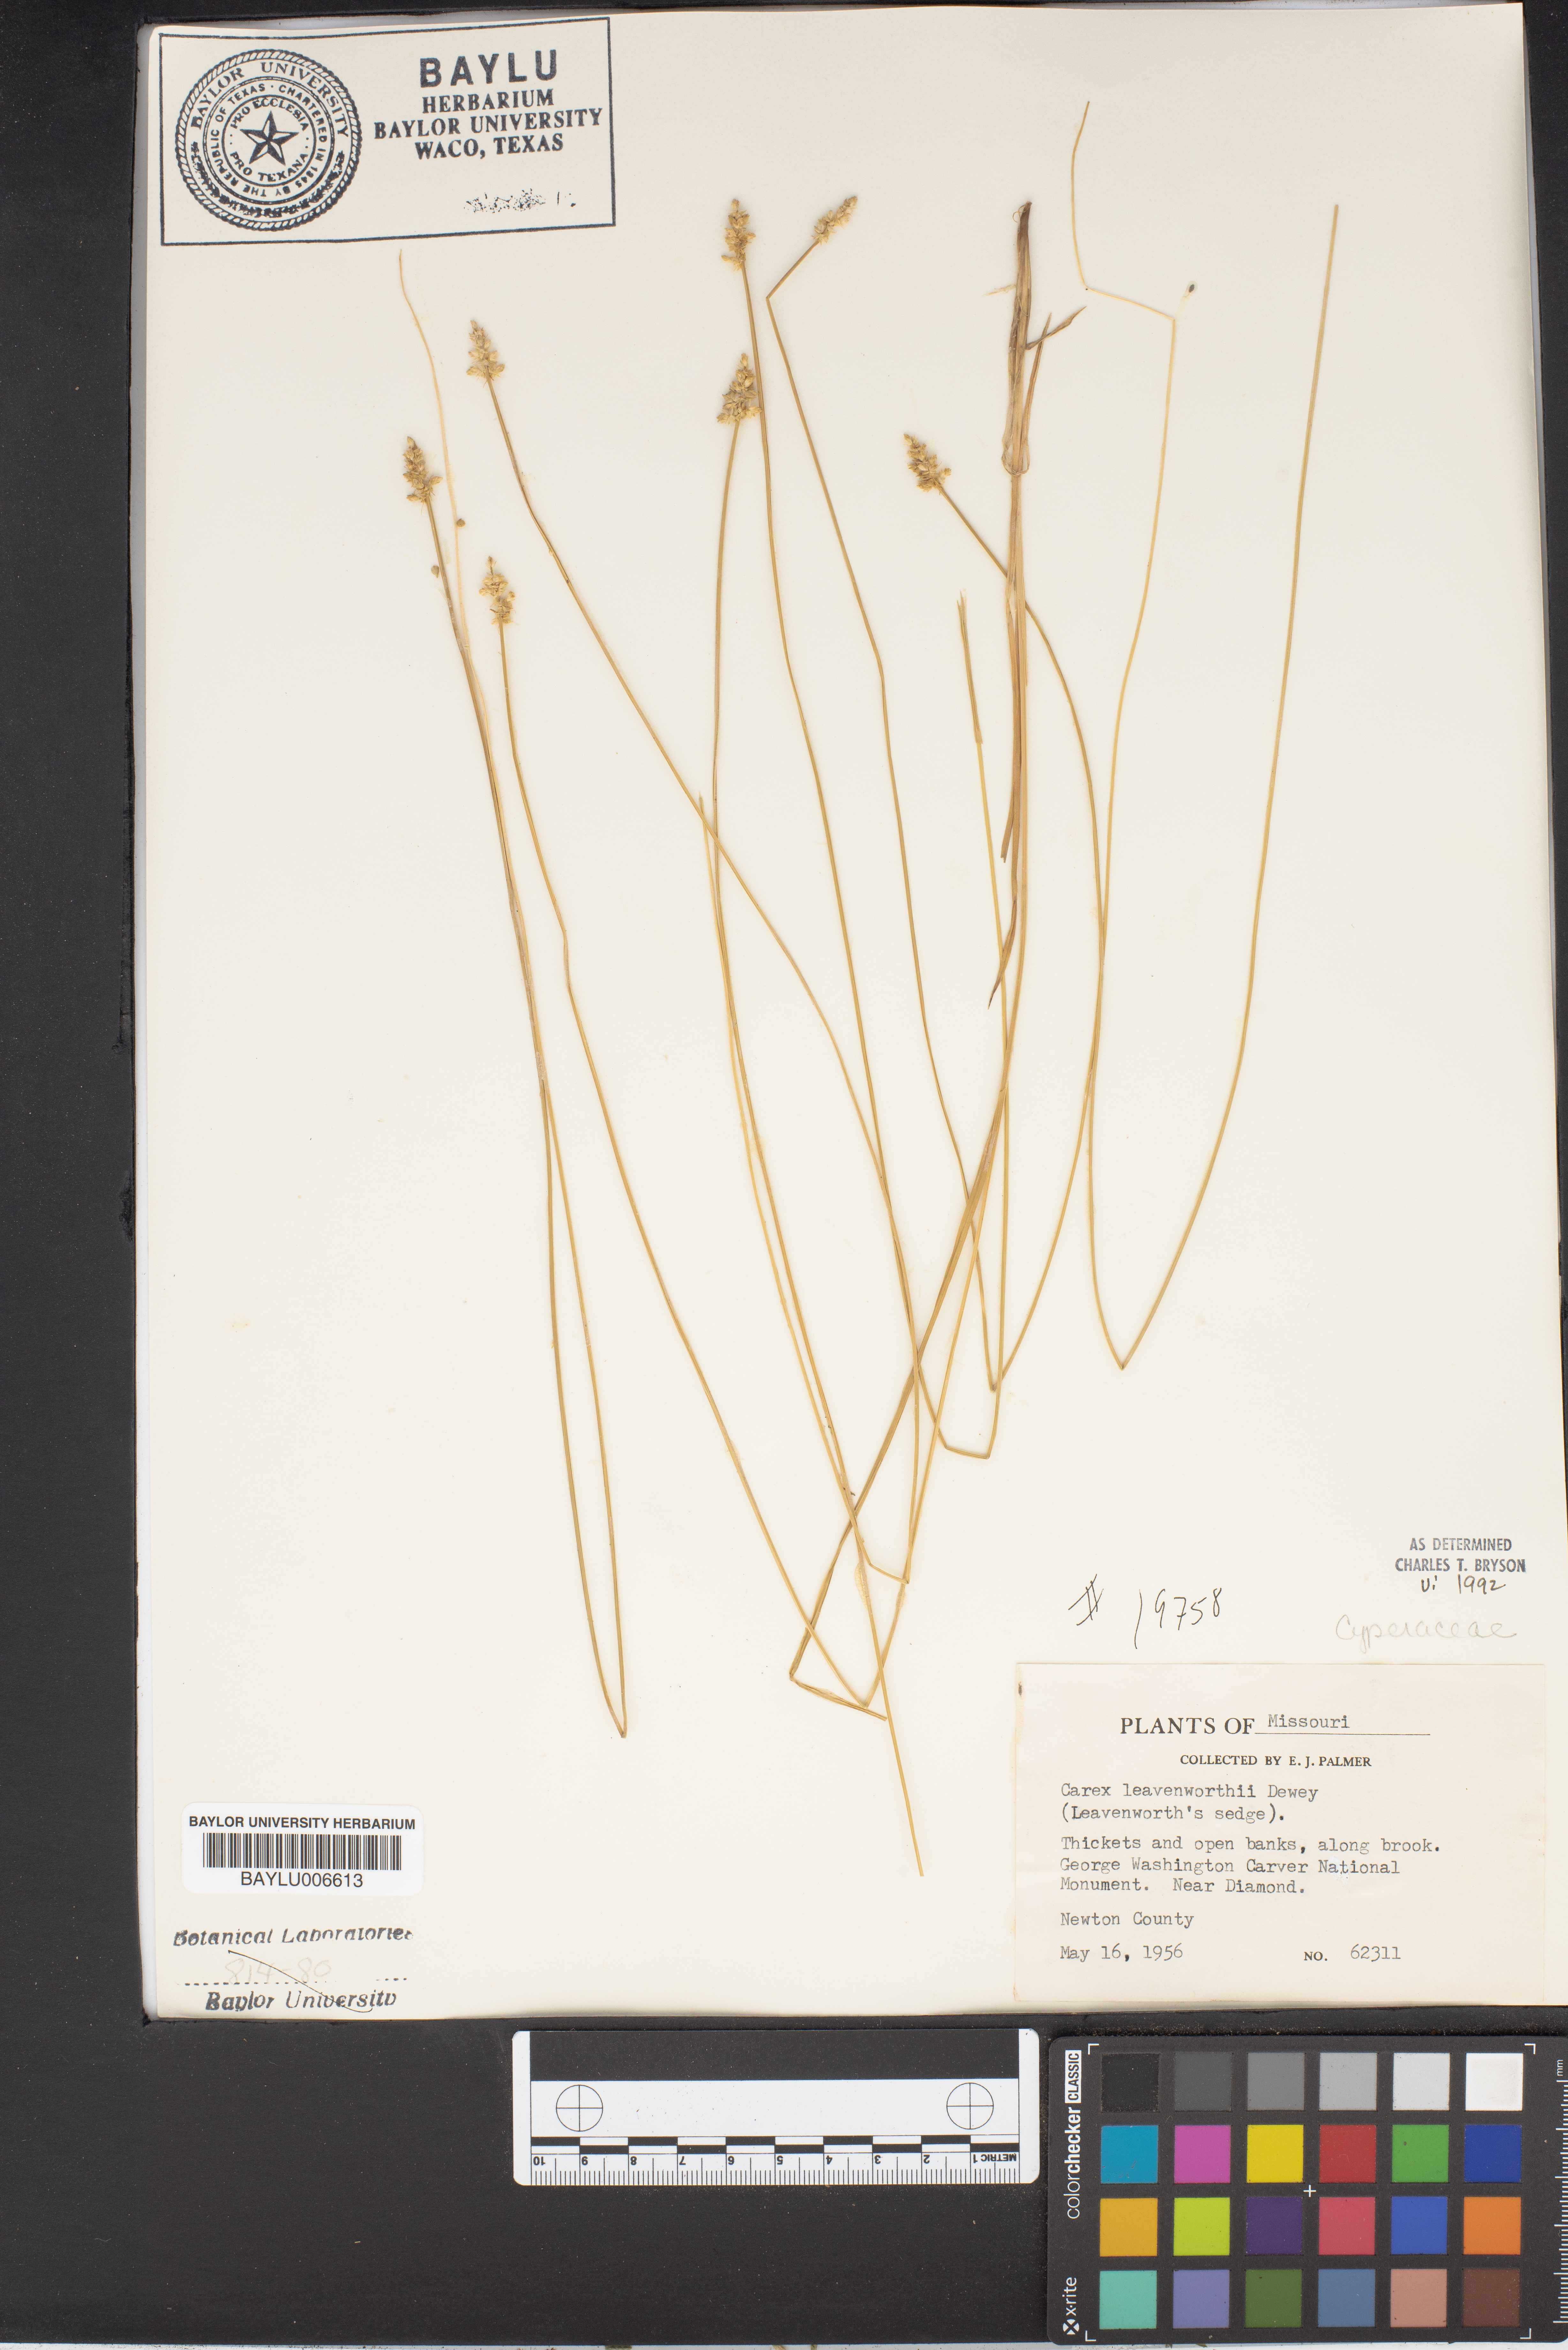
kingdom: Plantae
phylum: Tracheophyta
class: Liliopsida
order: Poales
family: Cyperaceae
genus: Carex
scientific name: Carex leavenworthii
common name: Leavenworth's bracted sedge
